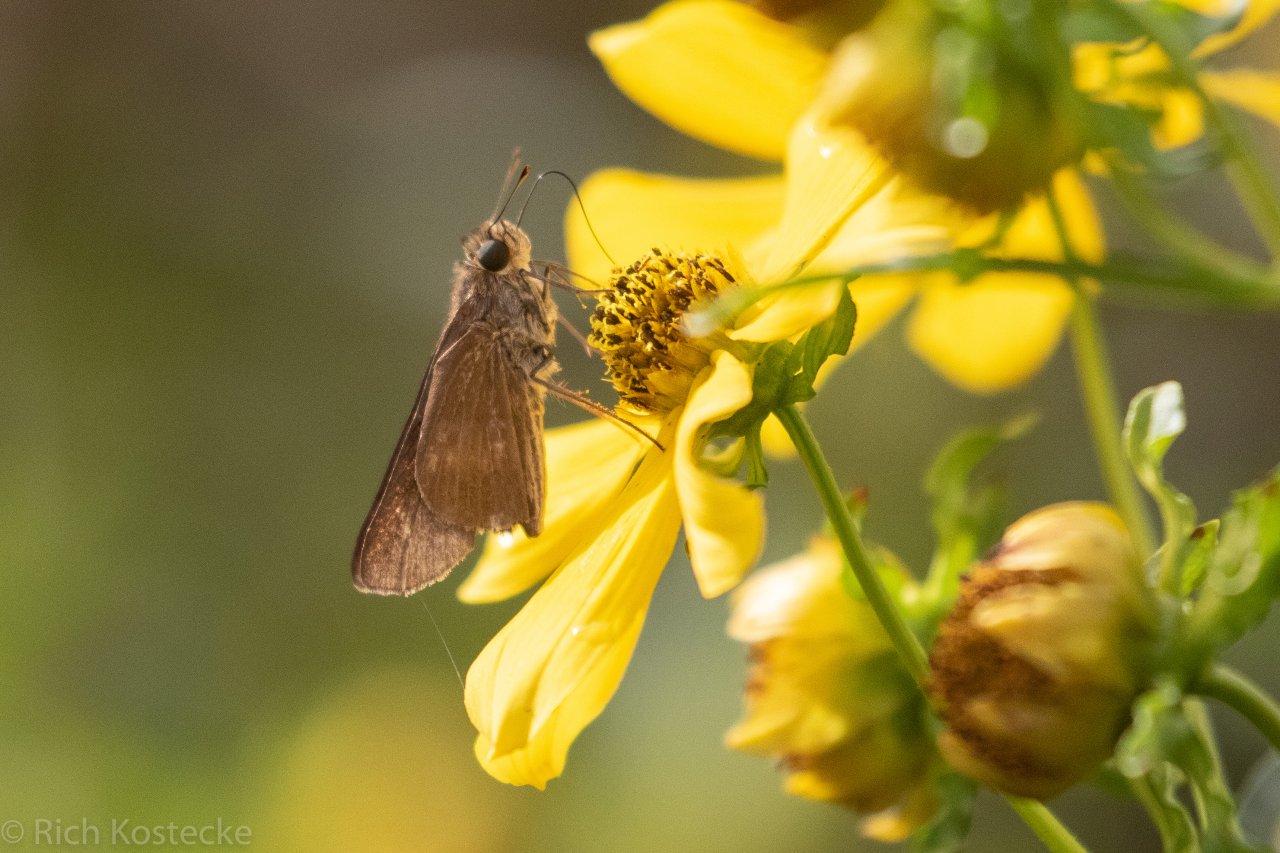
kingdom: Animalia
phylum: Arthropoda
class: Insecta
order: Lepidoptera
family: Hesperiidae
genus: Panoquina
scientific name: Panoquina ocola
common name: Ocola Skipper
